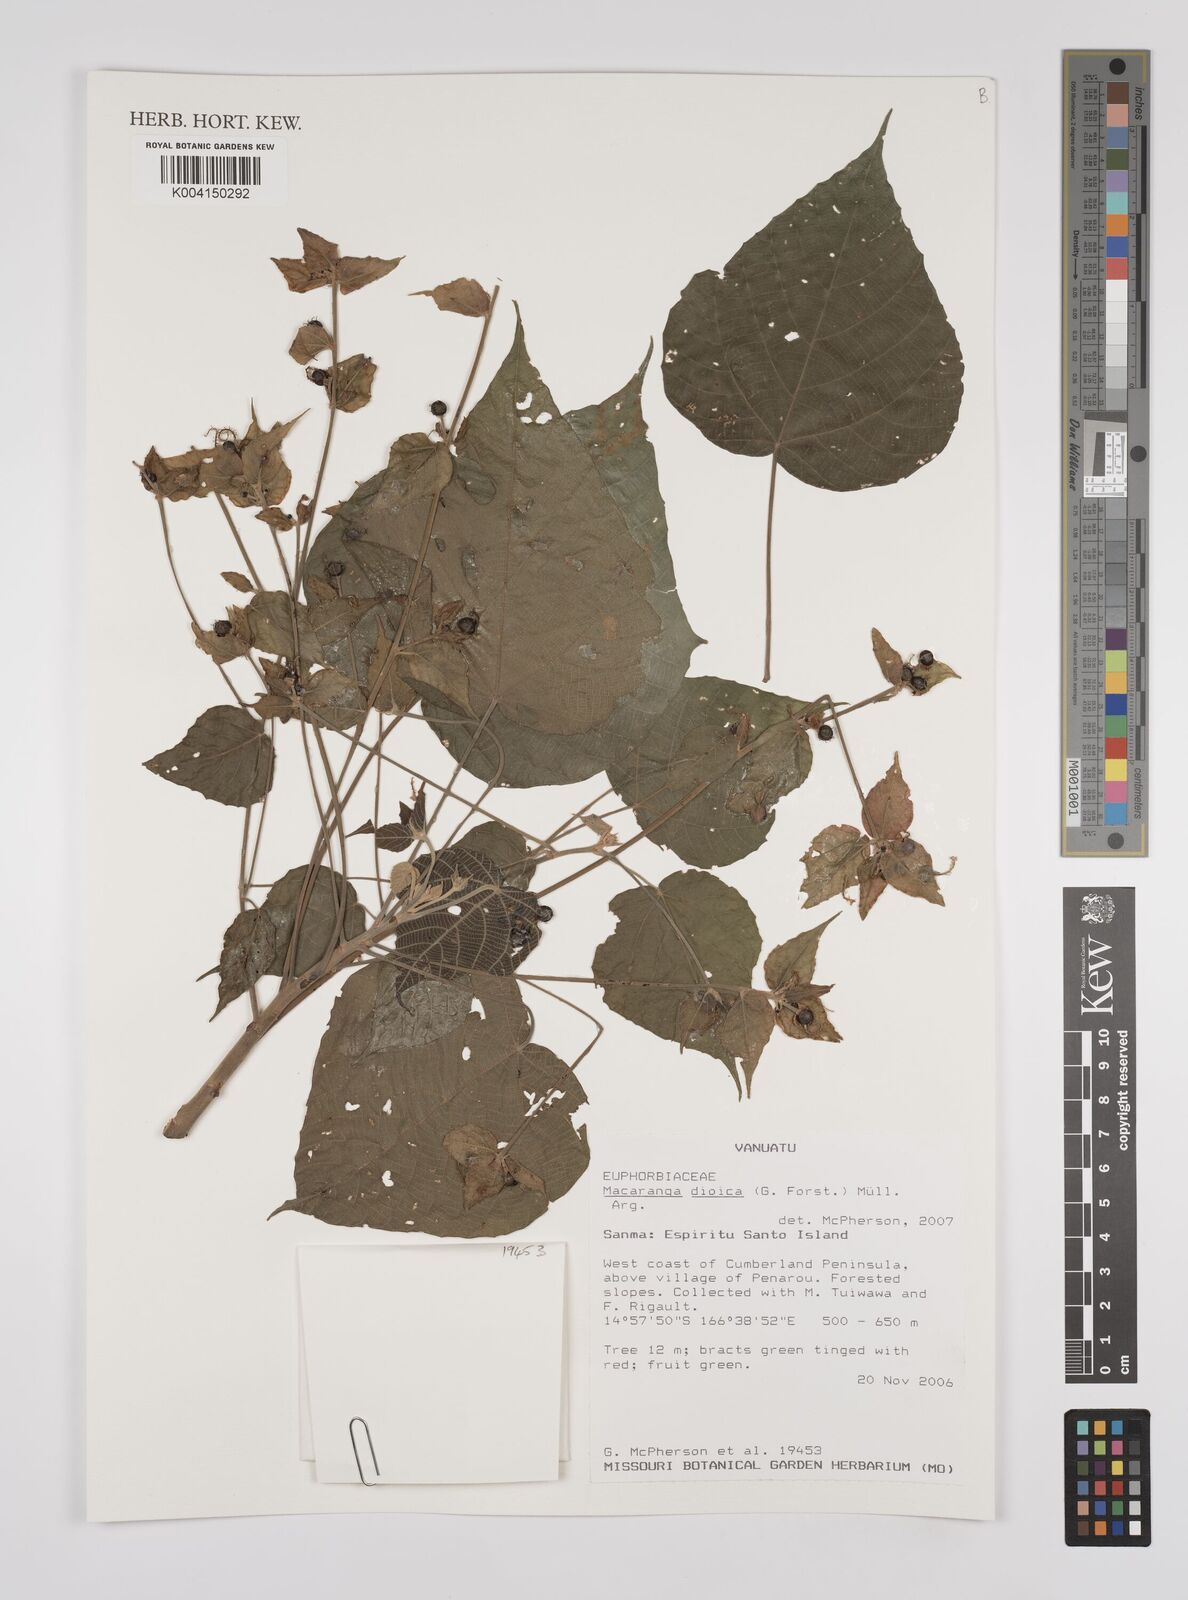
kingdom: Plantae
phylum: Tracheophyta
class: Magnoliopsida
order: Malpighiales
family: Euphorbiaceae
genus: Macaranga
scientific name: Macaranga dioica
